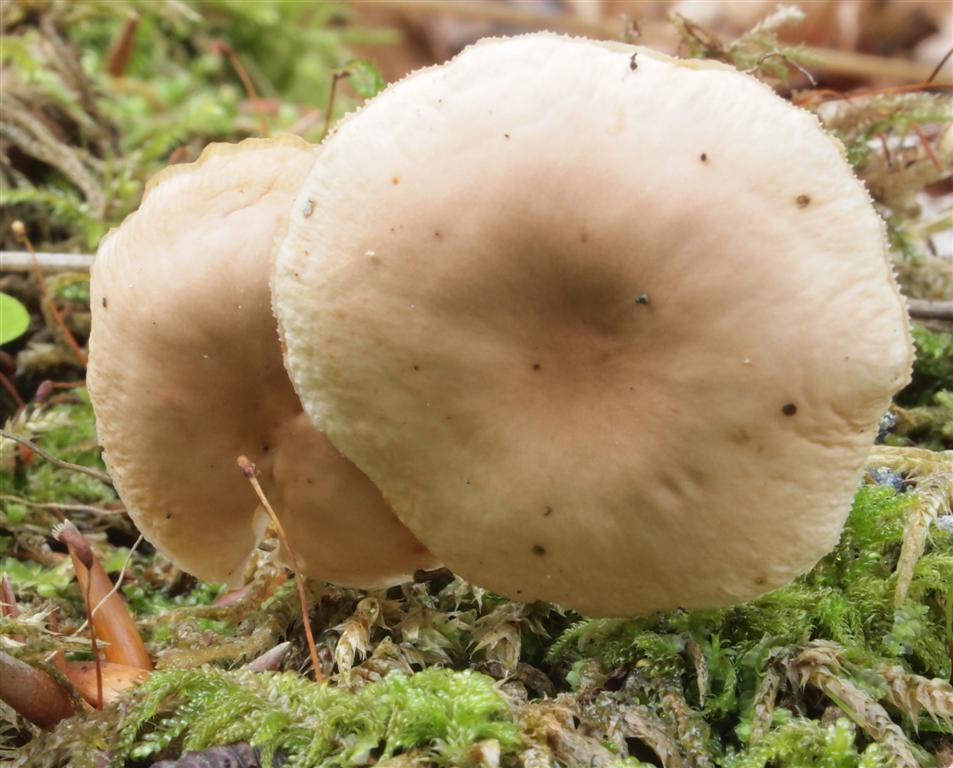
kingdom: Fungi
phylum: Basidiomycota
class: Agaricomycetes
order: Agaricales
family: Omphalotaceae
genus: Gymnopus
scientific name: Gymnopus dryophilus
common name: løv-fladhat
